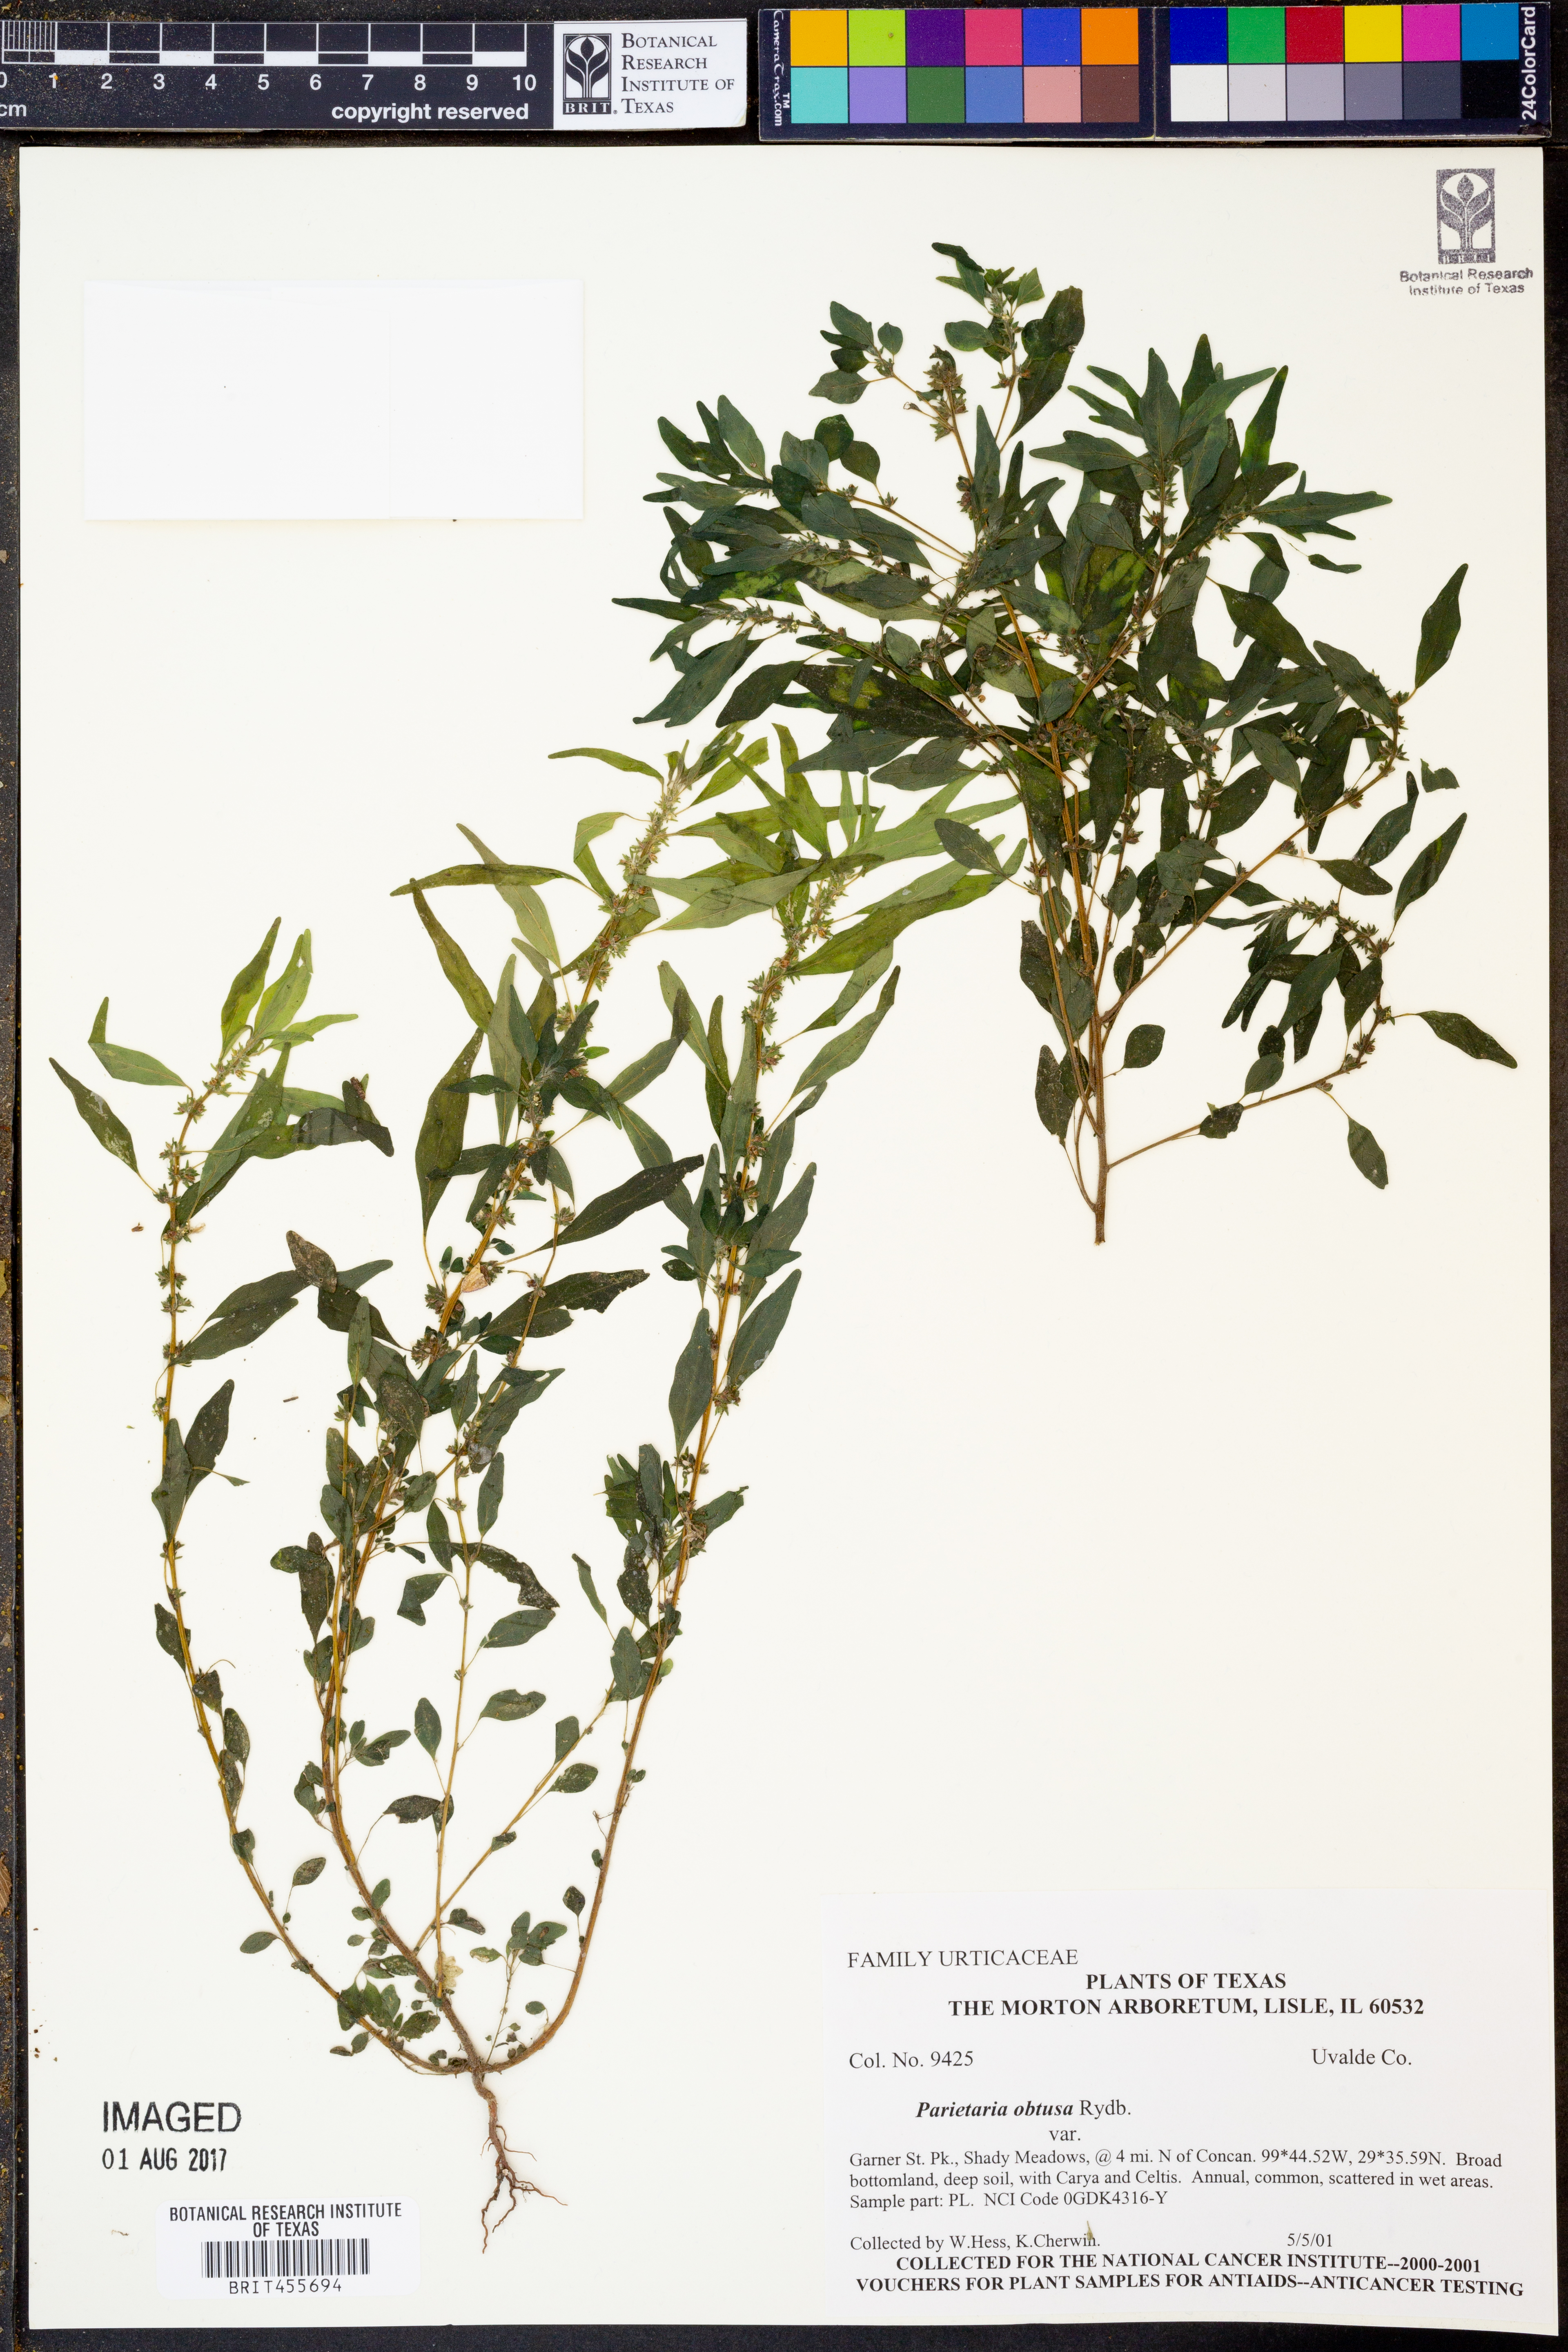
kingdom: Plantae
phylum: Tracheophyta
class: Magnoliopsida
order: Rosales
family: Urticaceae
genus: Parietaria
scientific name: Parietaria pensylvanica
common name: Pennsylvania pellitory
